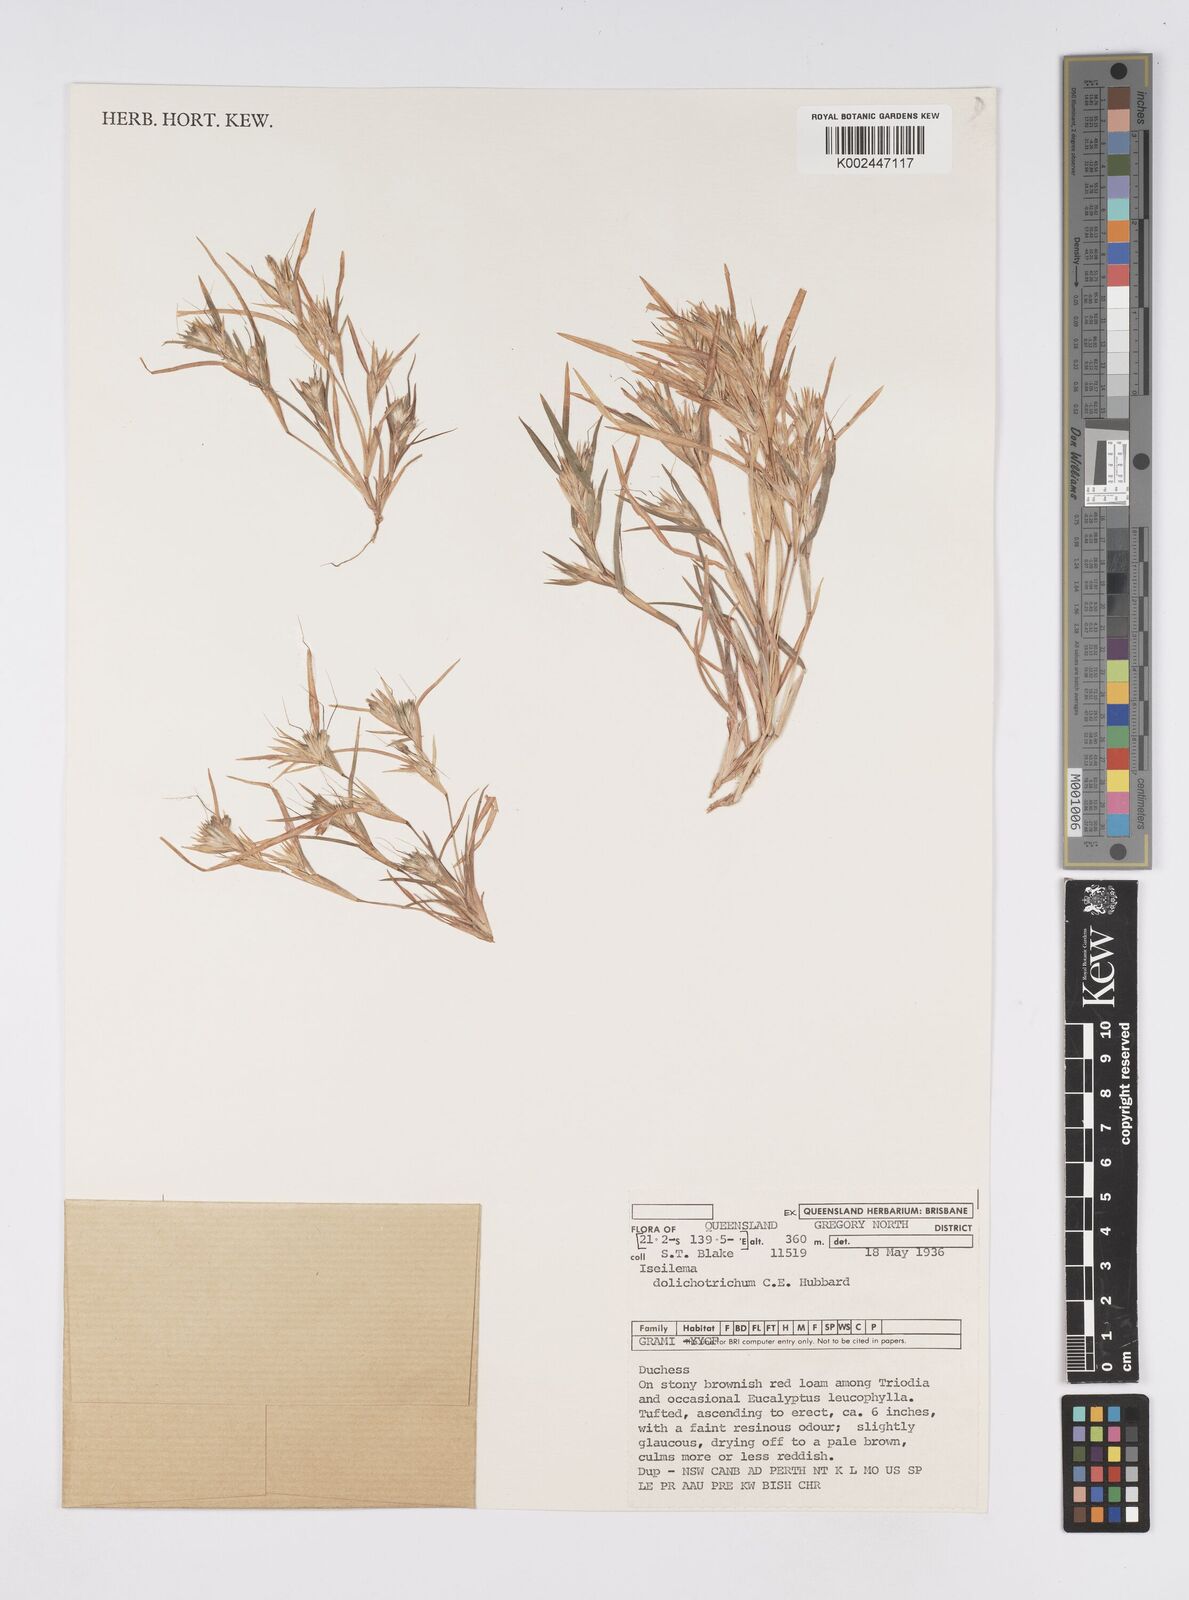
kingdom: Plantae
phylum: Tracheophyta
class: Liliopsida
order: Poales
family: Poaceae
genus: Iseilema
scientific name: Iseilema dolichotrichum
